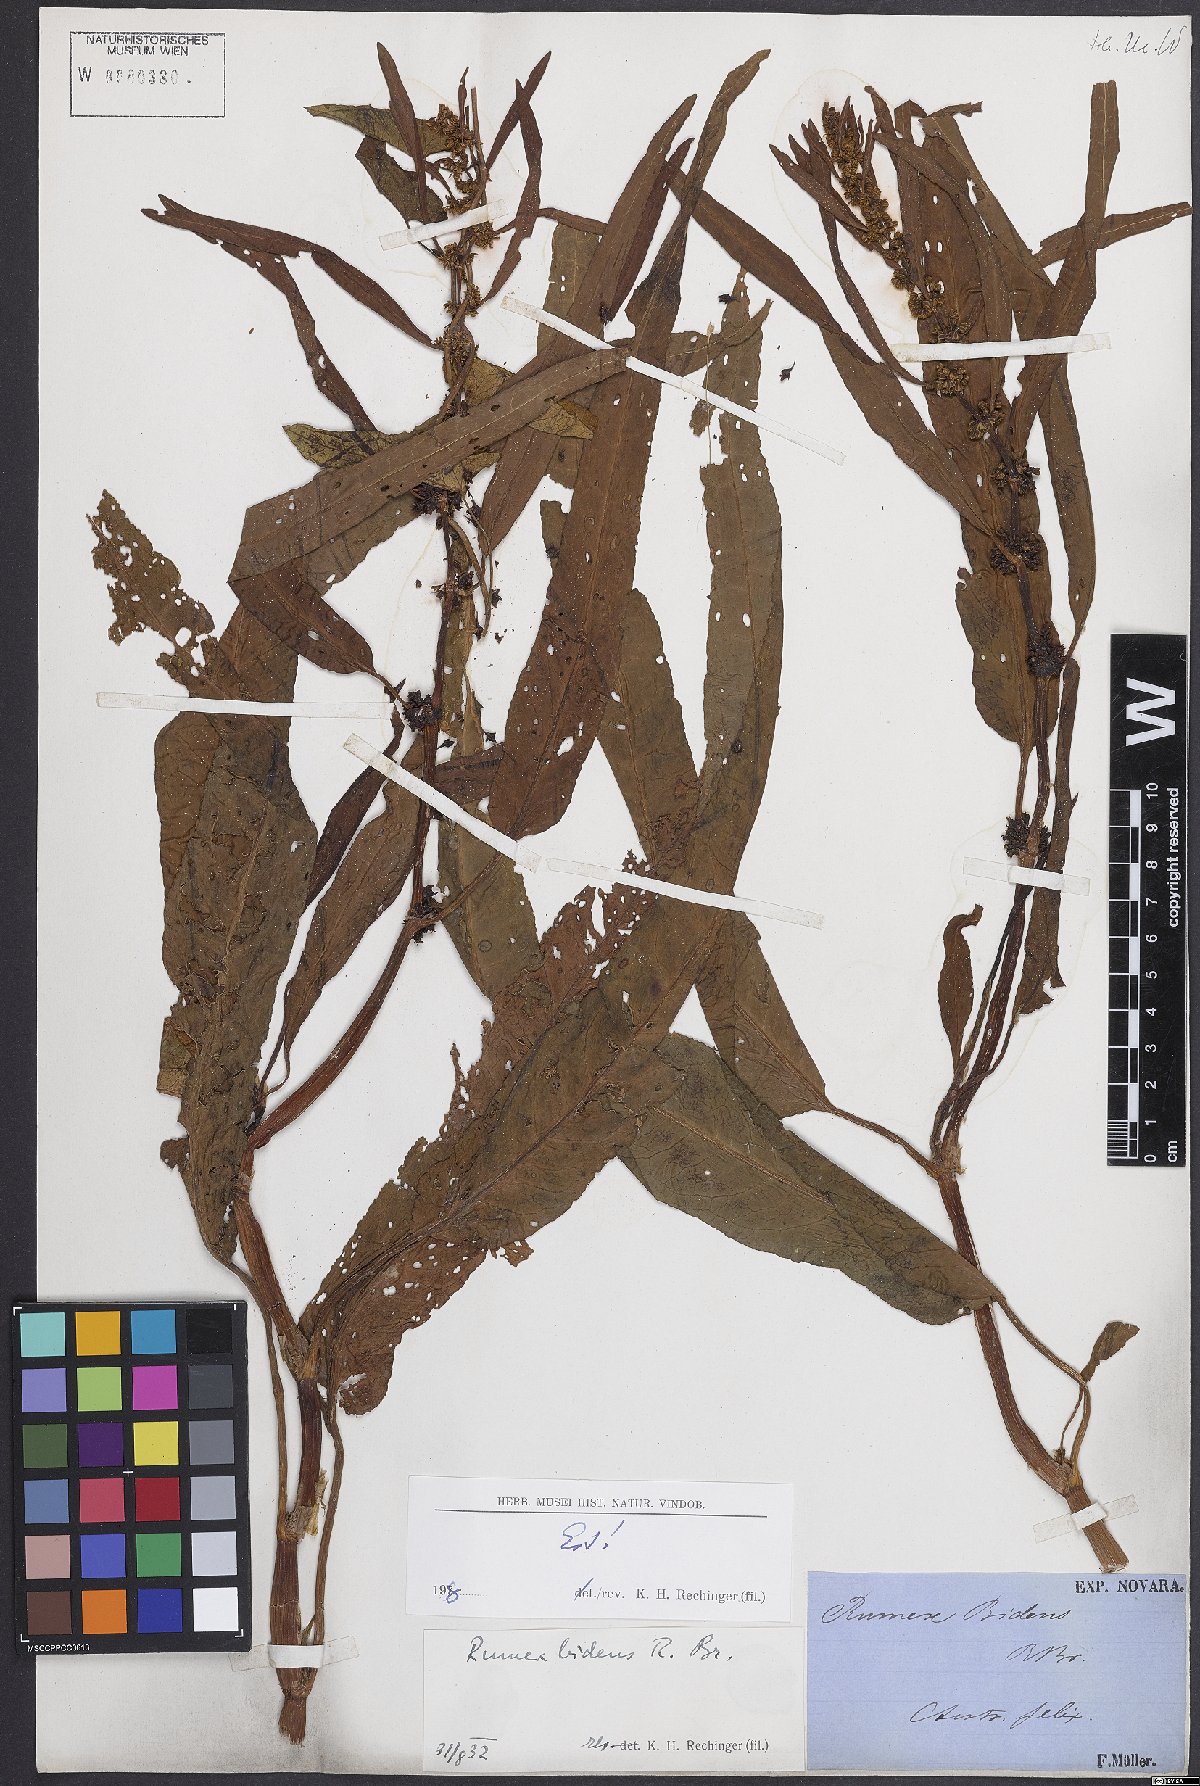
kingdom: Plantae
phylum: Tracheophyta
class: Magnoliopsida
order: Caryophyllales
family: Polygonaceae
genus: Rumex
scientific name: Rumex
